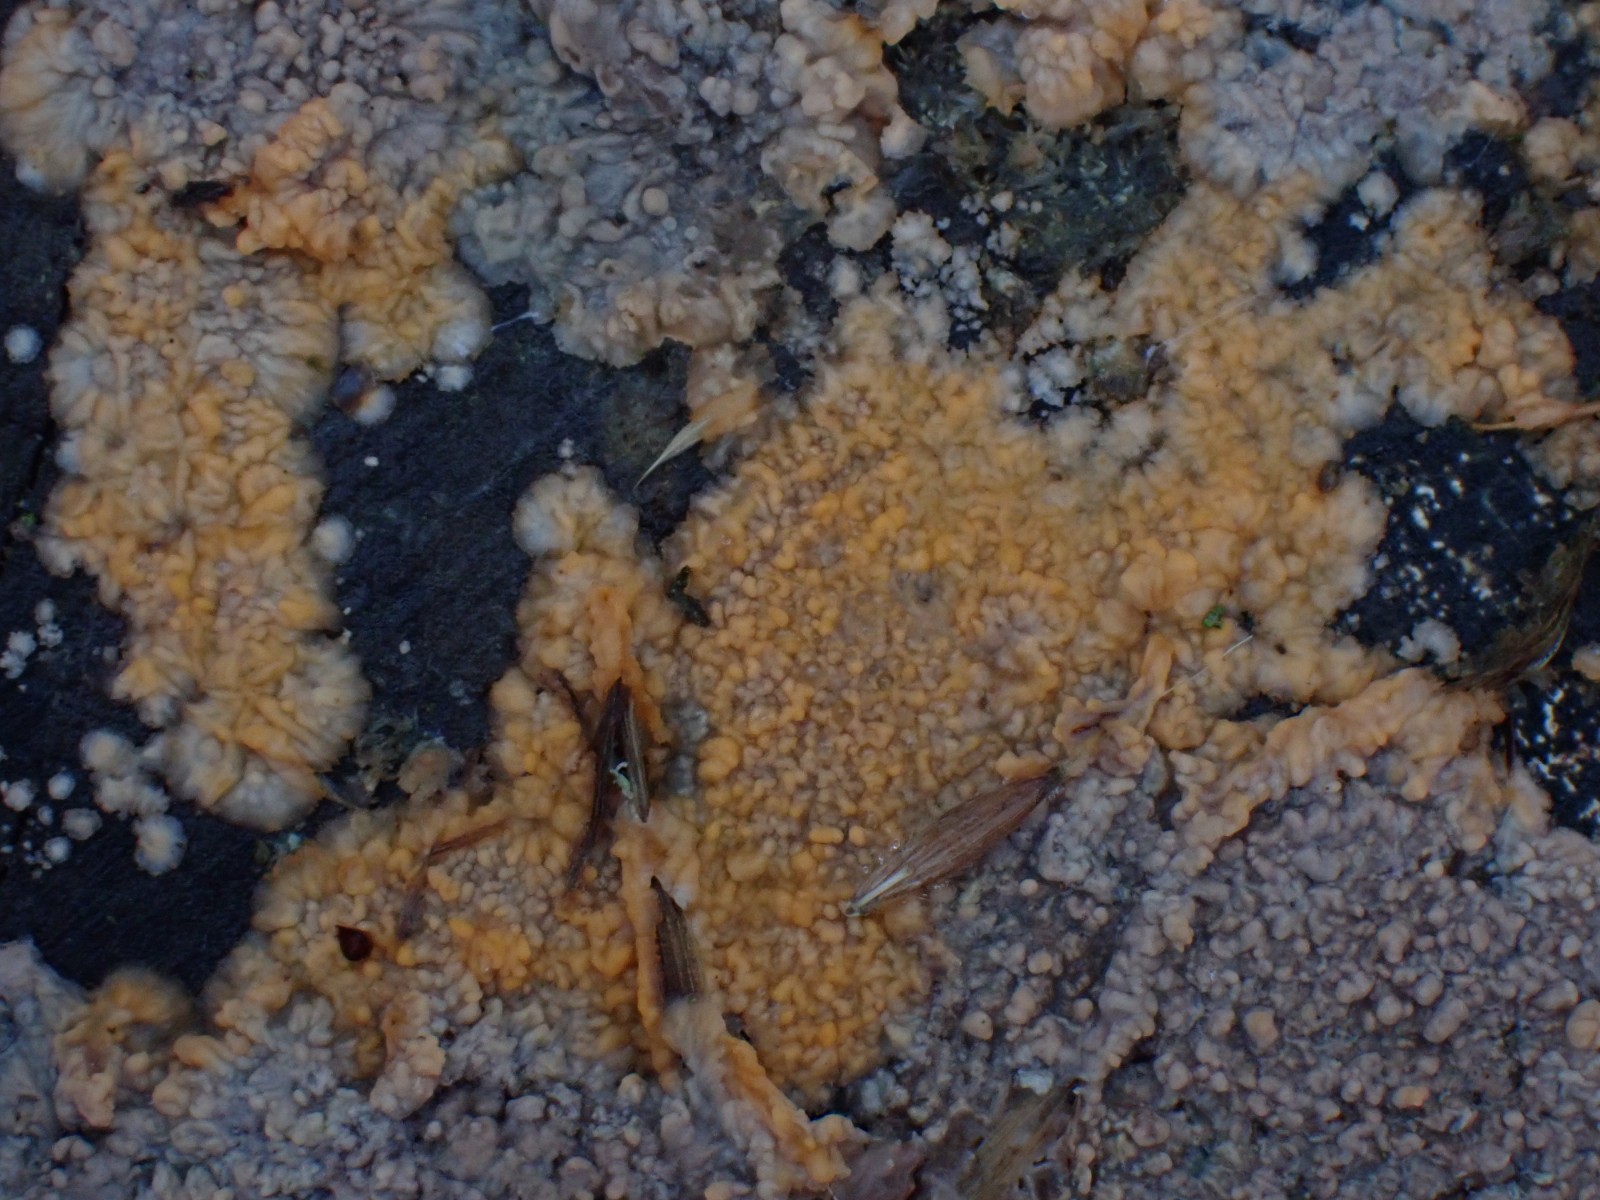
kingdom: Fungi
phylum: Basidiomycota
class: Agaricomycetes
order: Polyporales
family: Meruliaceae
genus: Phlebia
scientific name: Phlebia radiata
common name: stråle-åresvamp
